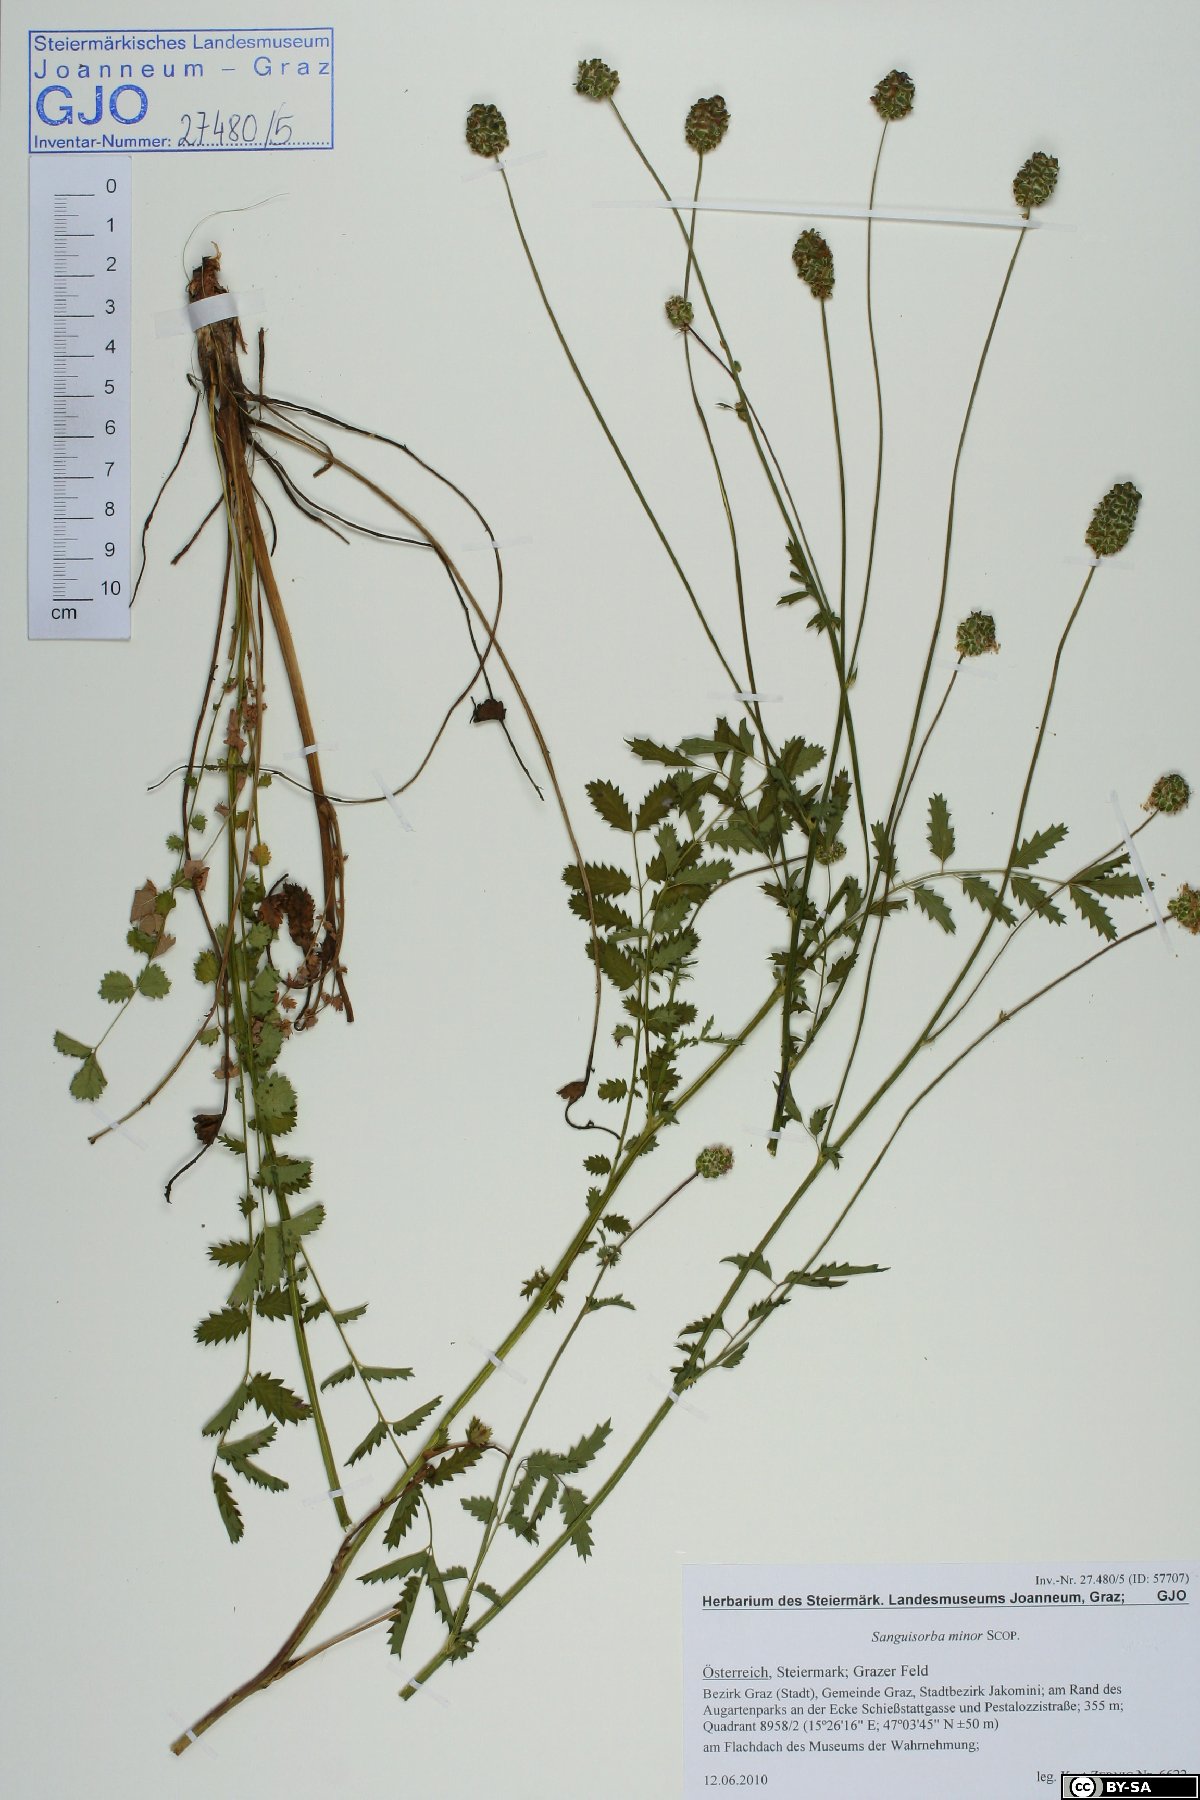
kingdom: Plantae
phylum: Tracheophyta
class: Magnoliopsida
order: Rosales
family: Rosaceae
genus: Poterium
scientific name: Poterium sanguisorba
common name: Salad burnet
